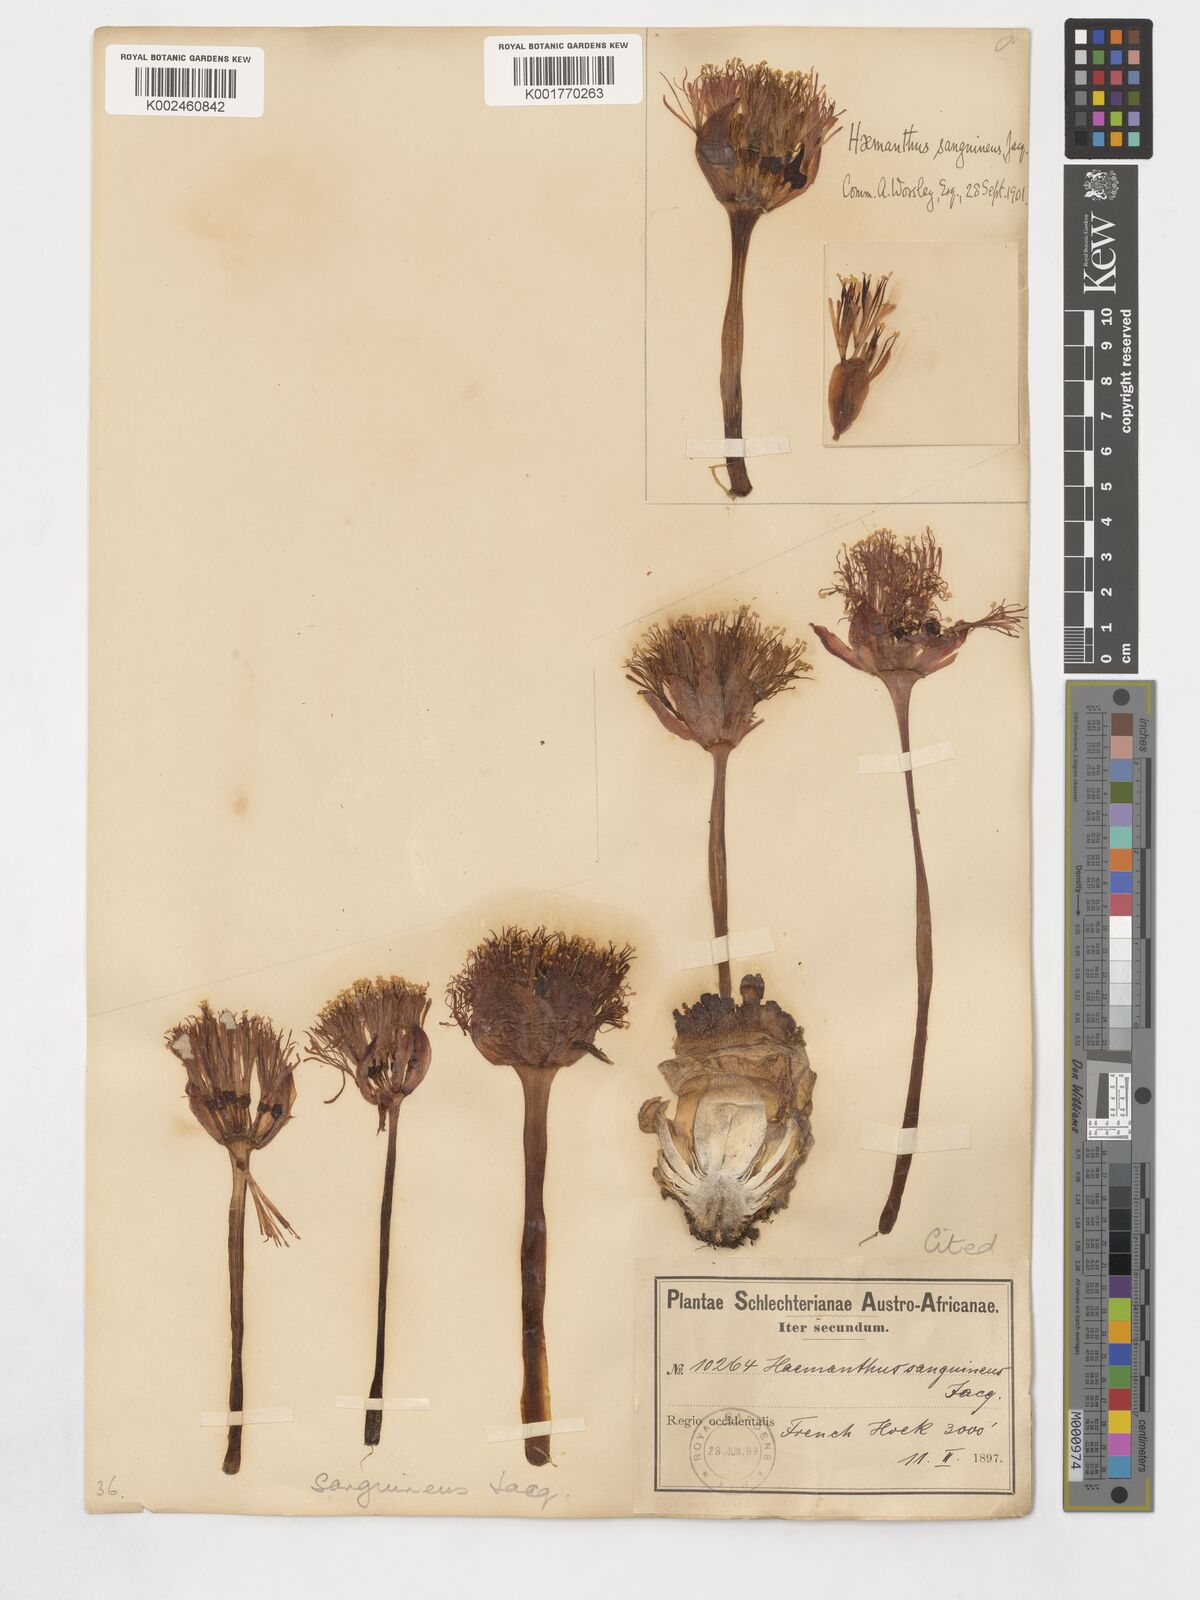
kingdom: Plantae
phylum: Tracheophyta
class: Liliopsida
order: Asparagales
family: Amaryllidaceae
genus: Haemanthus
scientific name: Haemanthus sanguineus
